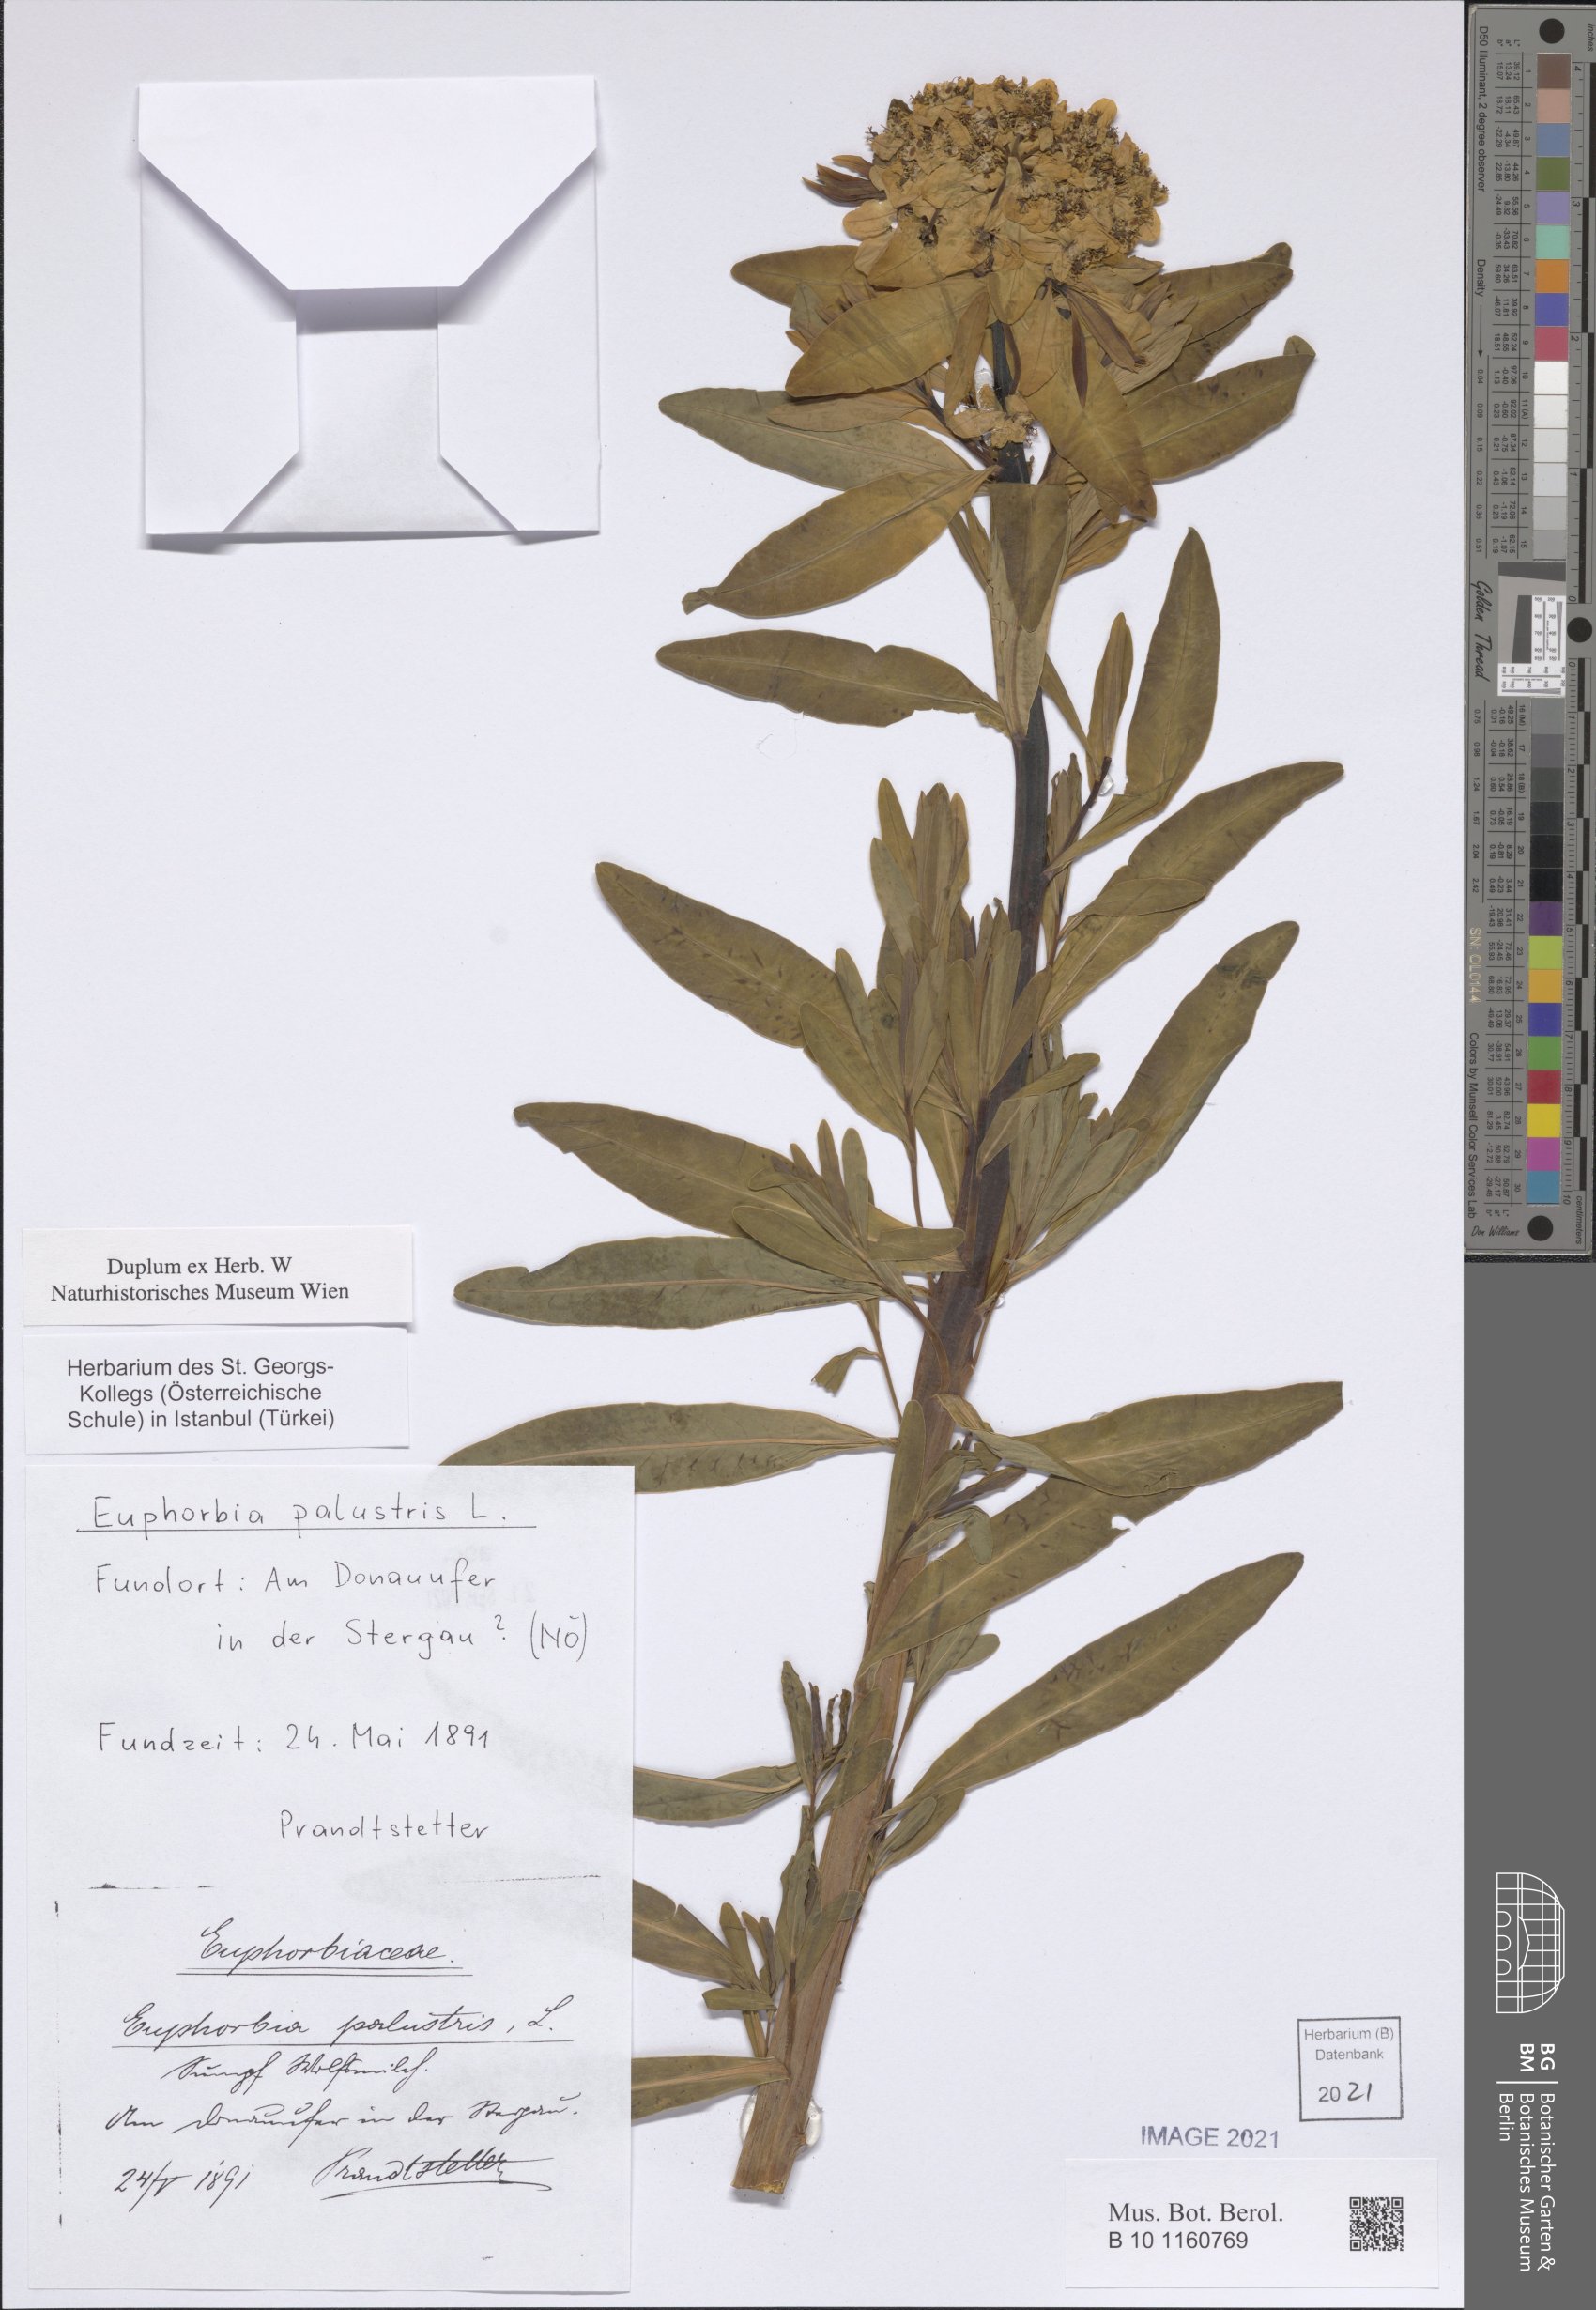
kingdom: Plantae
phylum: Tracheophyta
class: Magnoliopsida
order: Malpighiales
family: Euphorbiaceae
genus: Euphorbia
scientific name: Euphorbia palustris
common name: Marsh spurge
